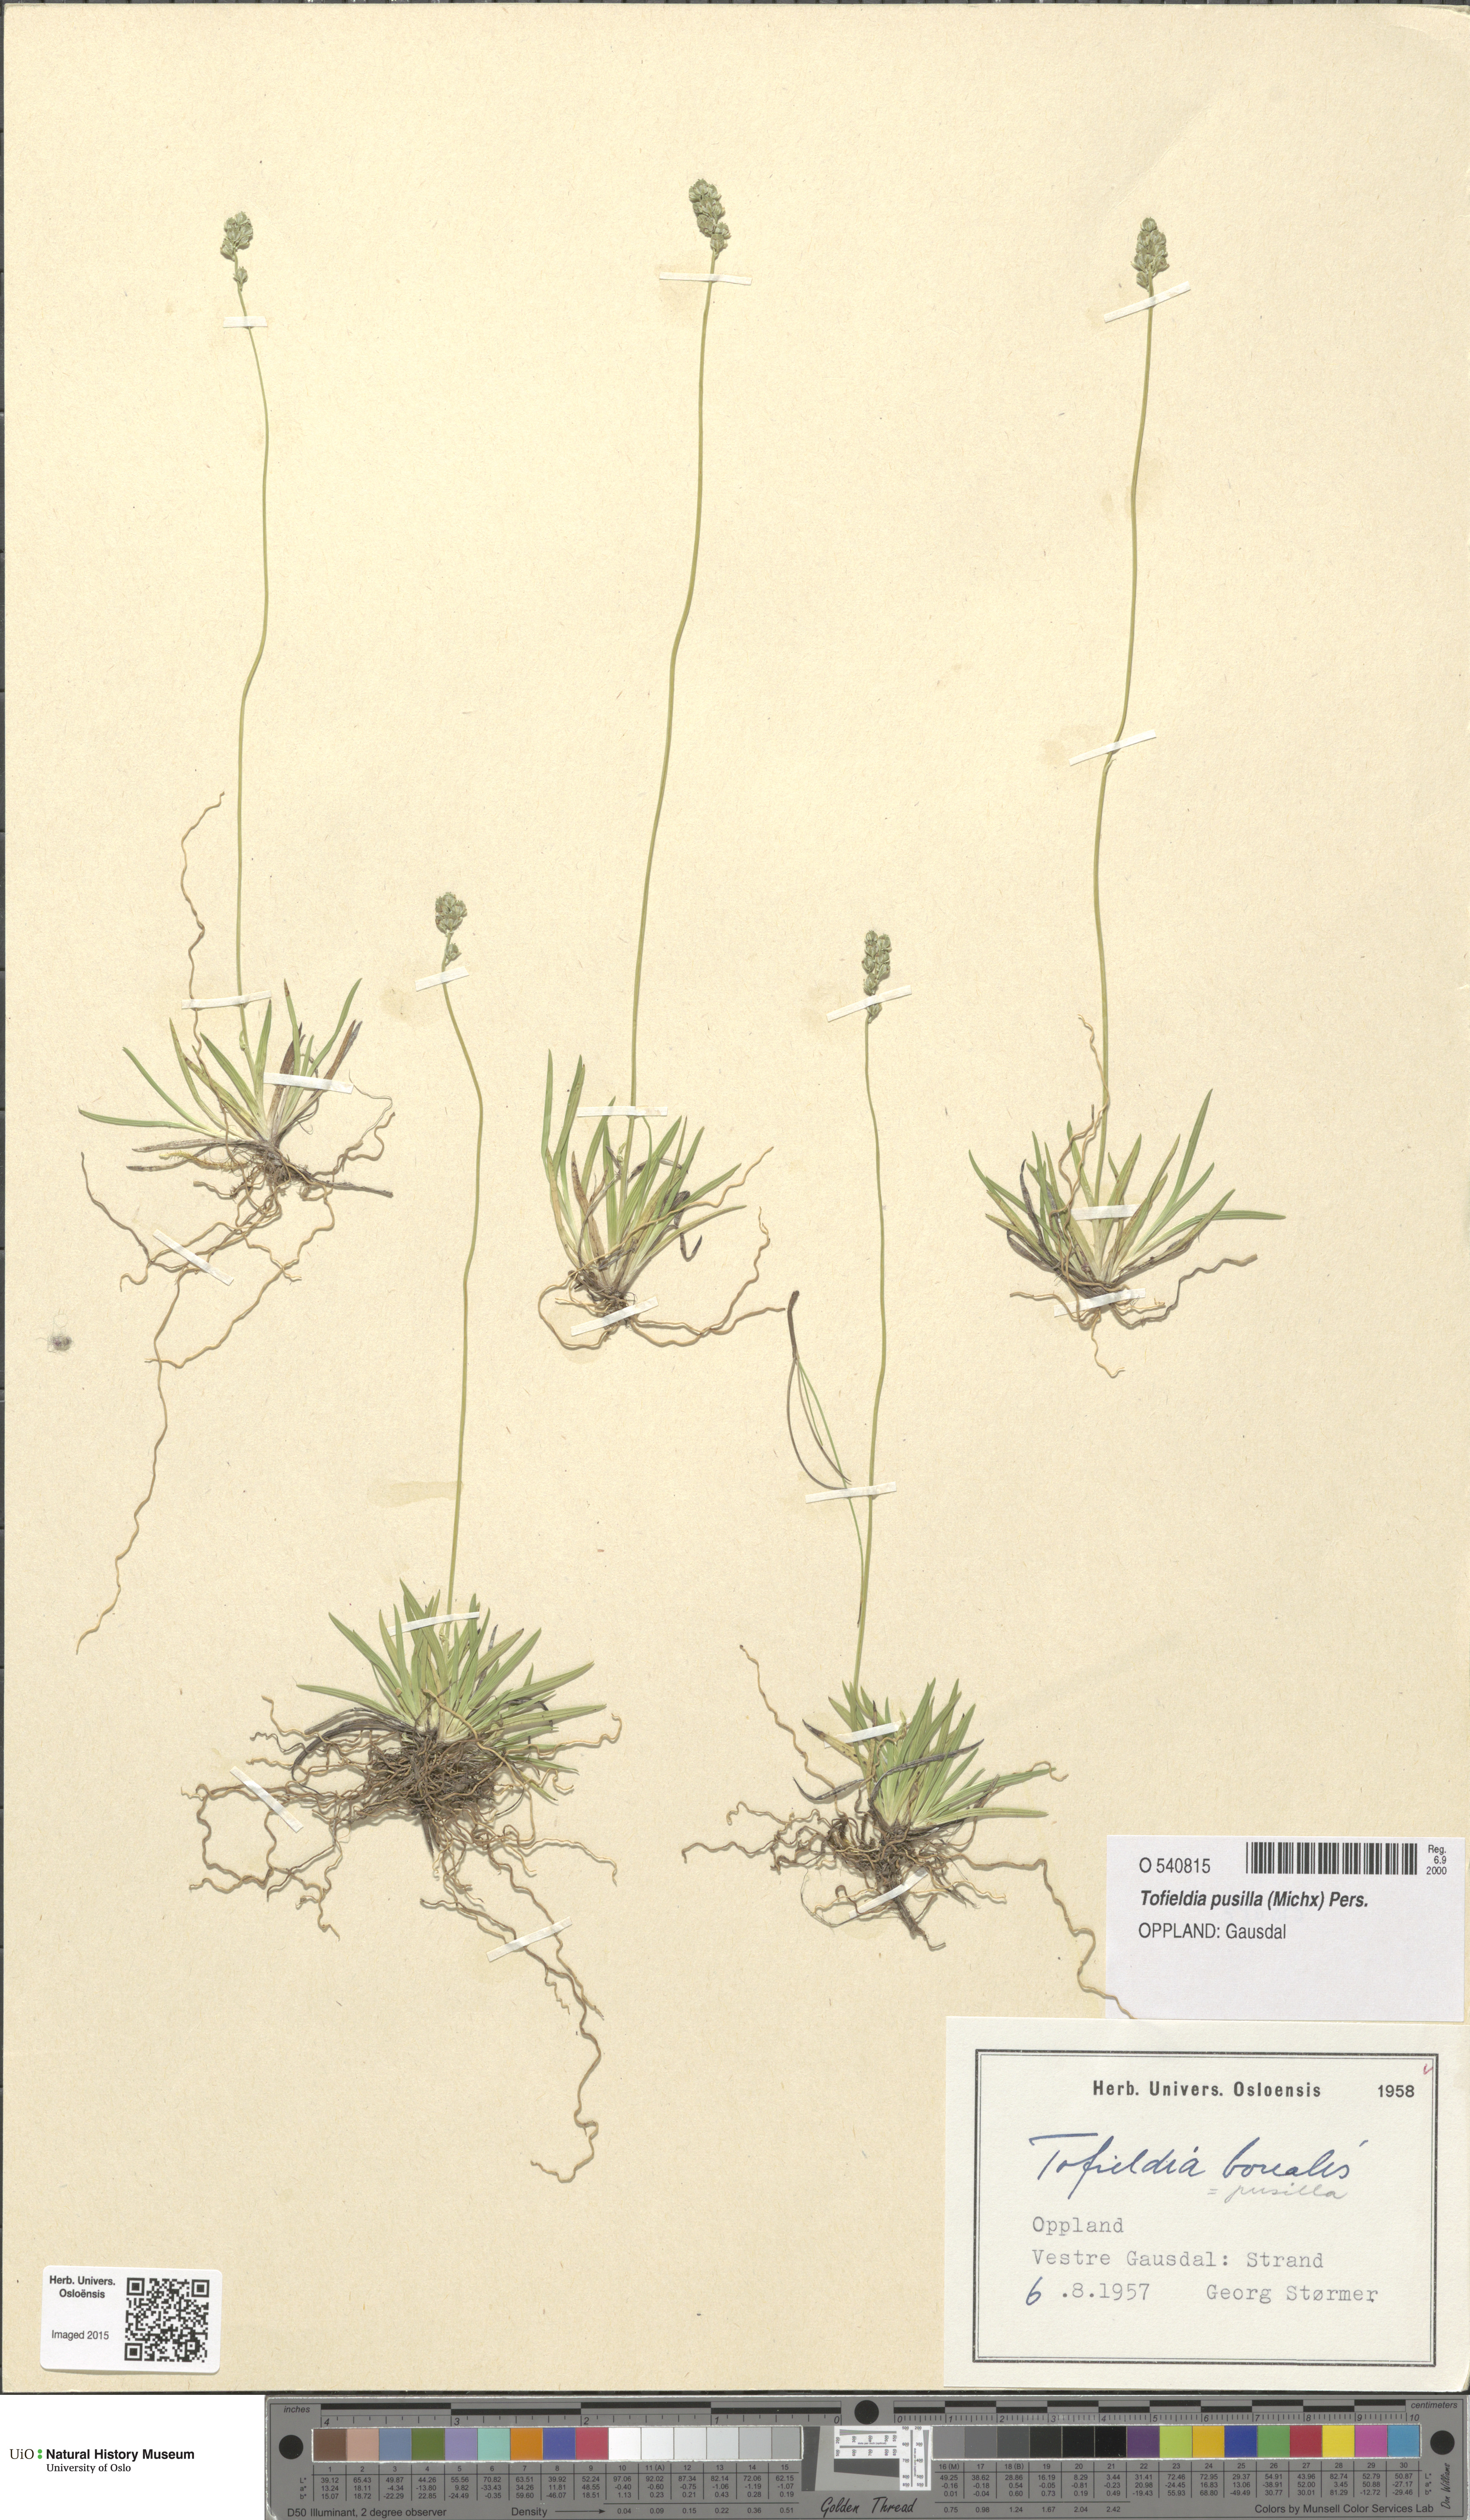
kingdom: Plantae
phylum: Tracheophyta
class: Liliopsida
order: Alismatales
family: Tofieldiaceae
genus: Tofieldia
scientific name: Tofieldia pusilla
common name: Scottish false asphodel
